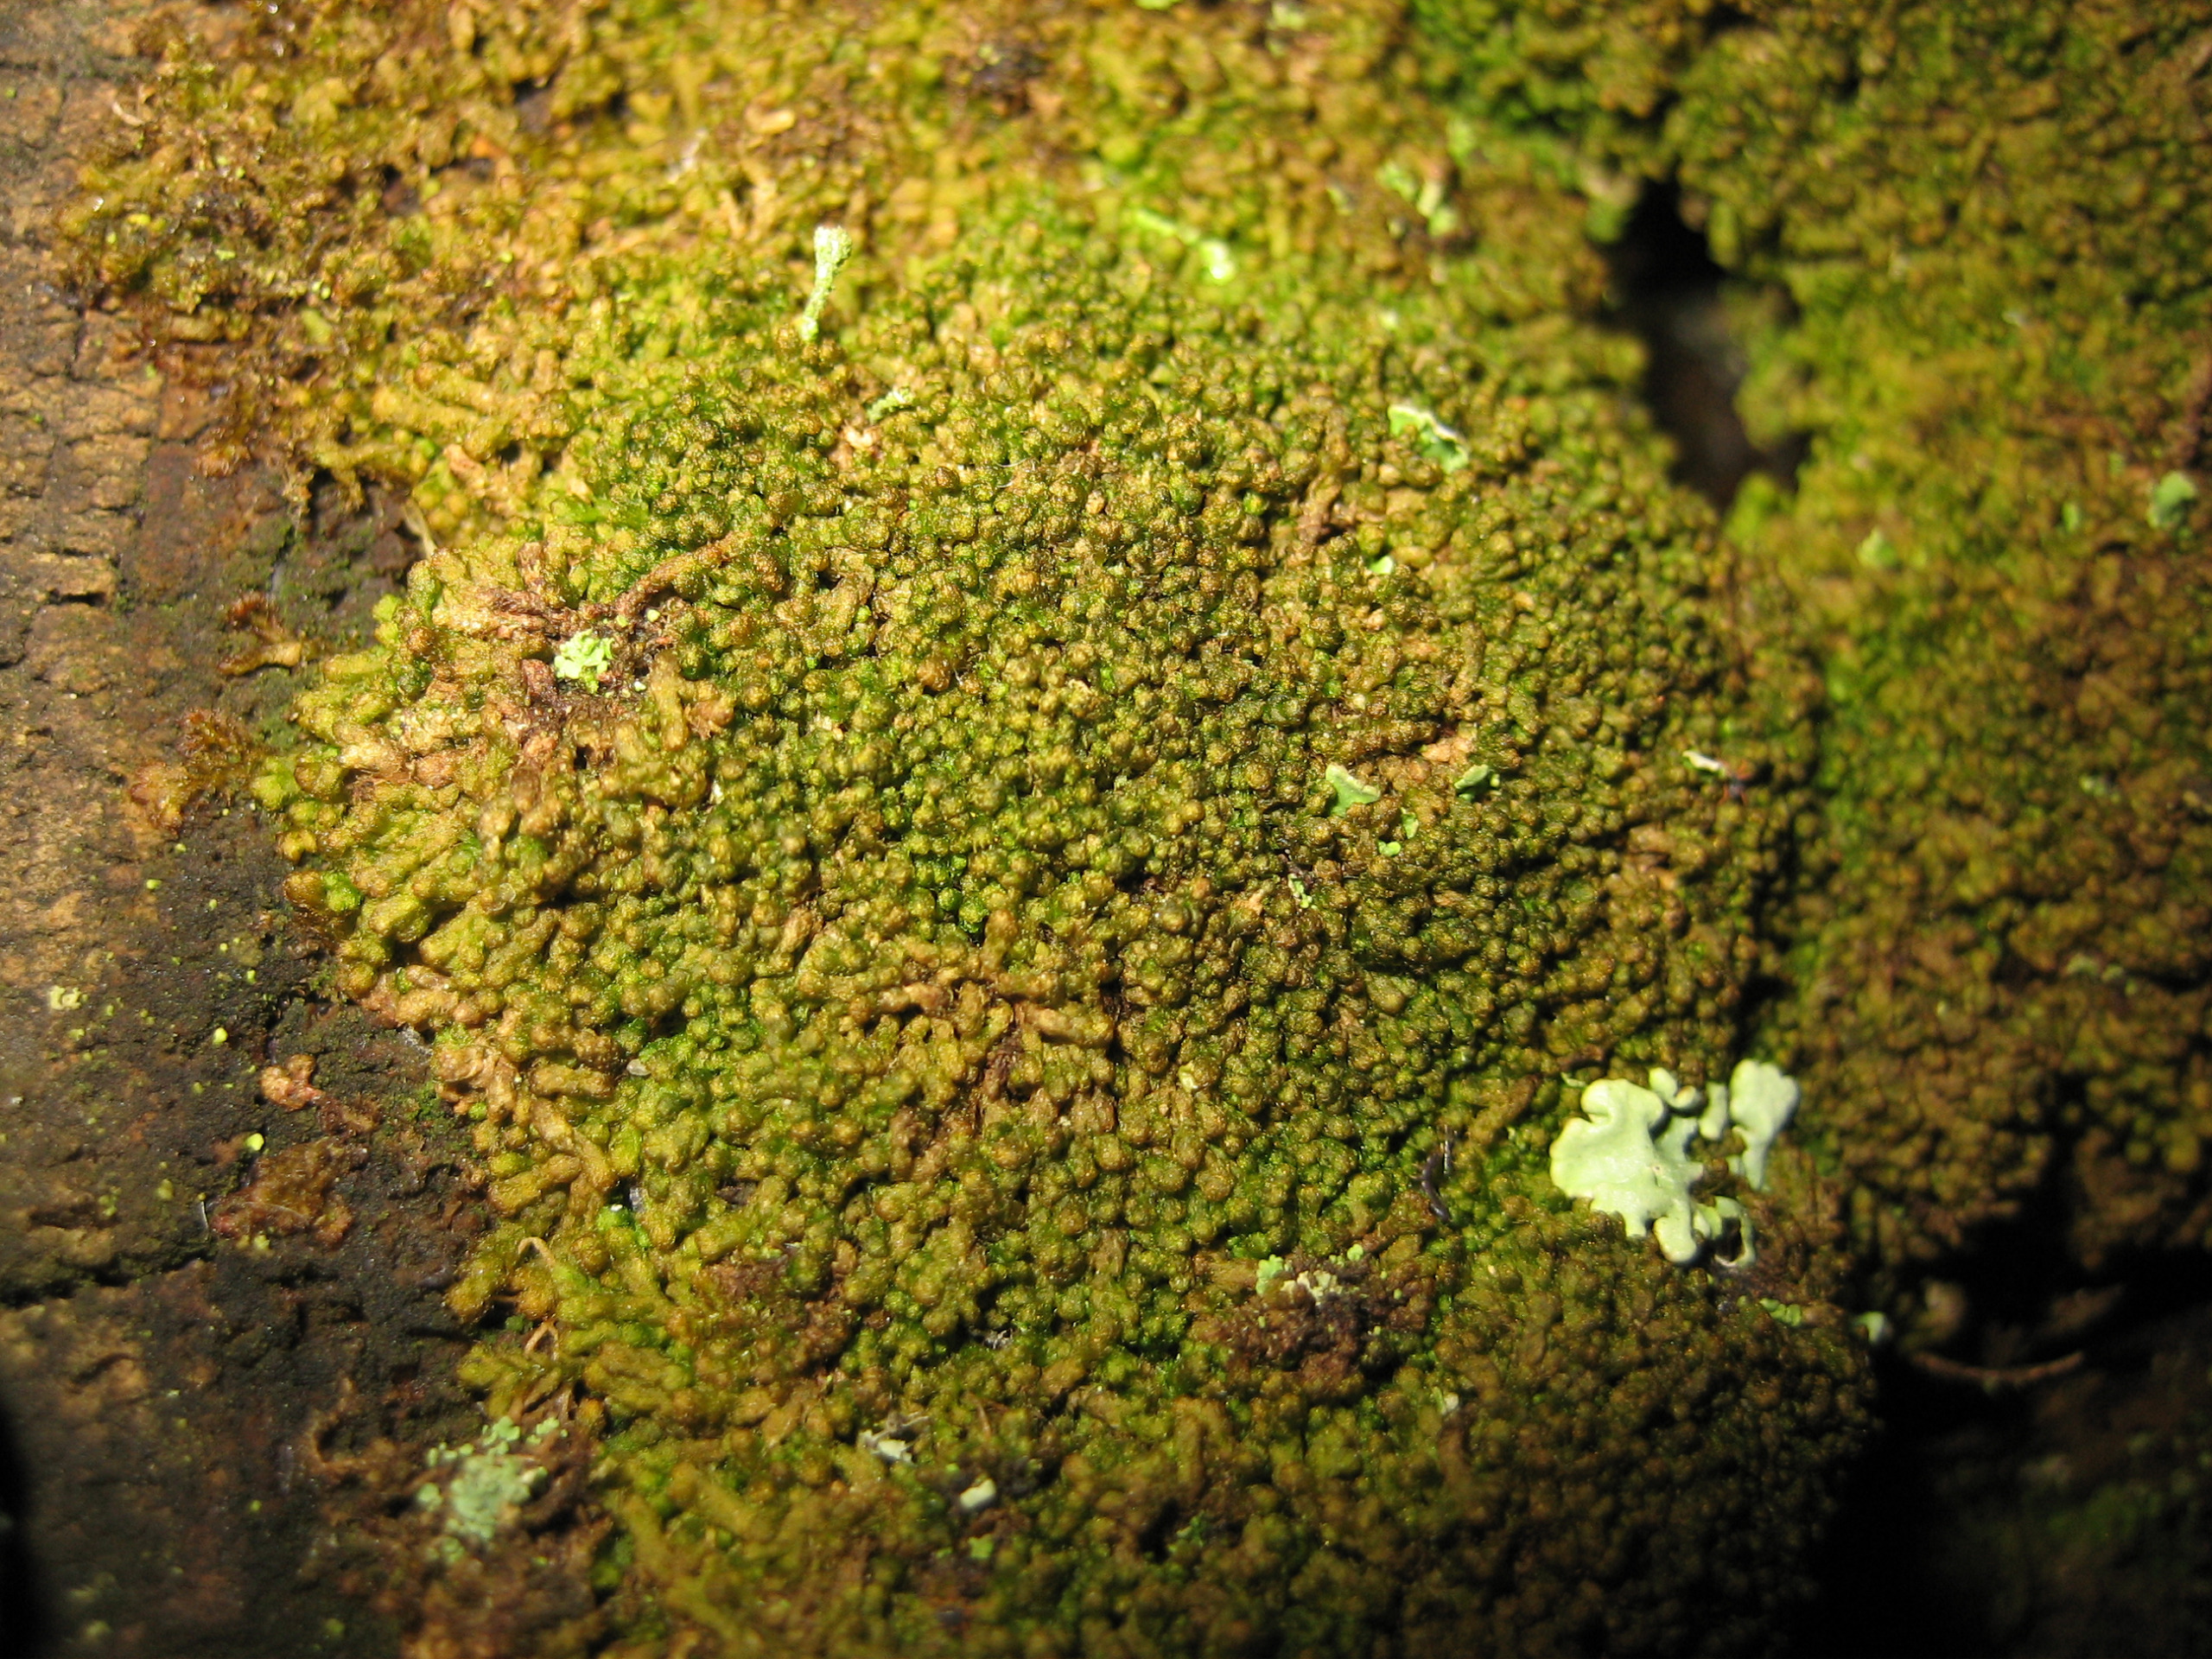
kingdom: Plantae
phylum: Marchantiophyta
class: Jungermanniopsida
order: Ptilidiales
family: Ptilidiaceae
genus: Ptilidium
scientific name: Ptilidium pulcherrimum
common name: Stub-frynsemos
